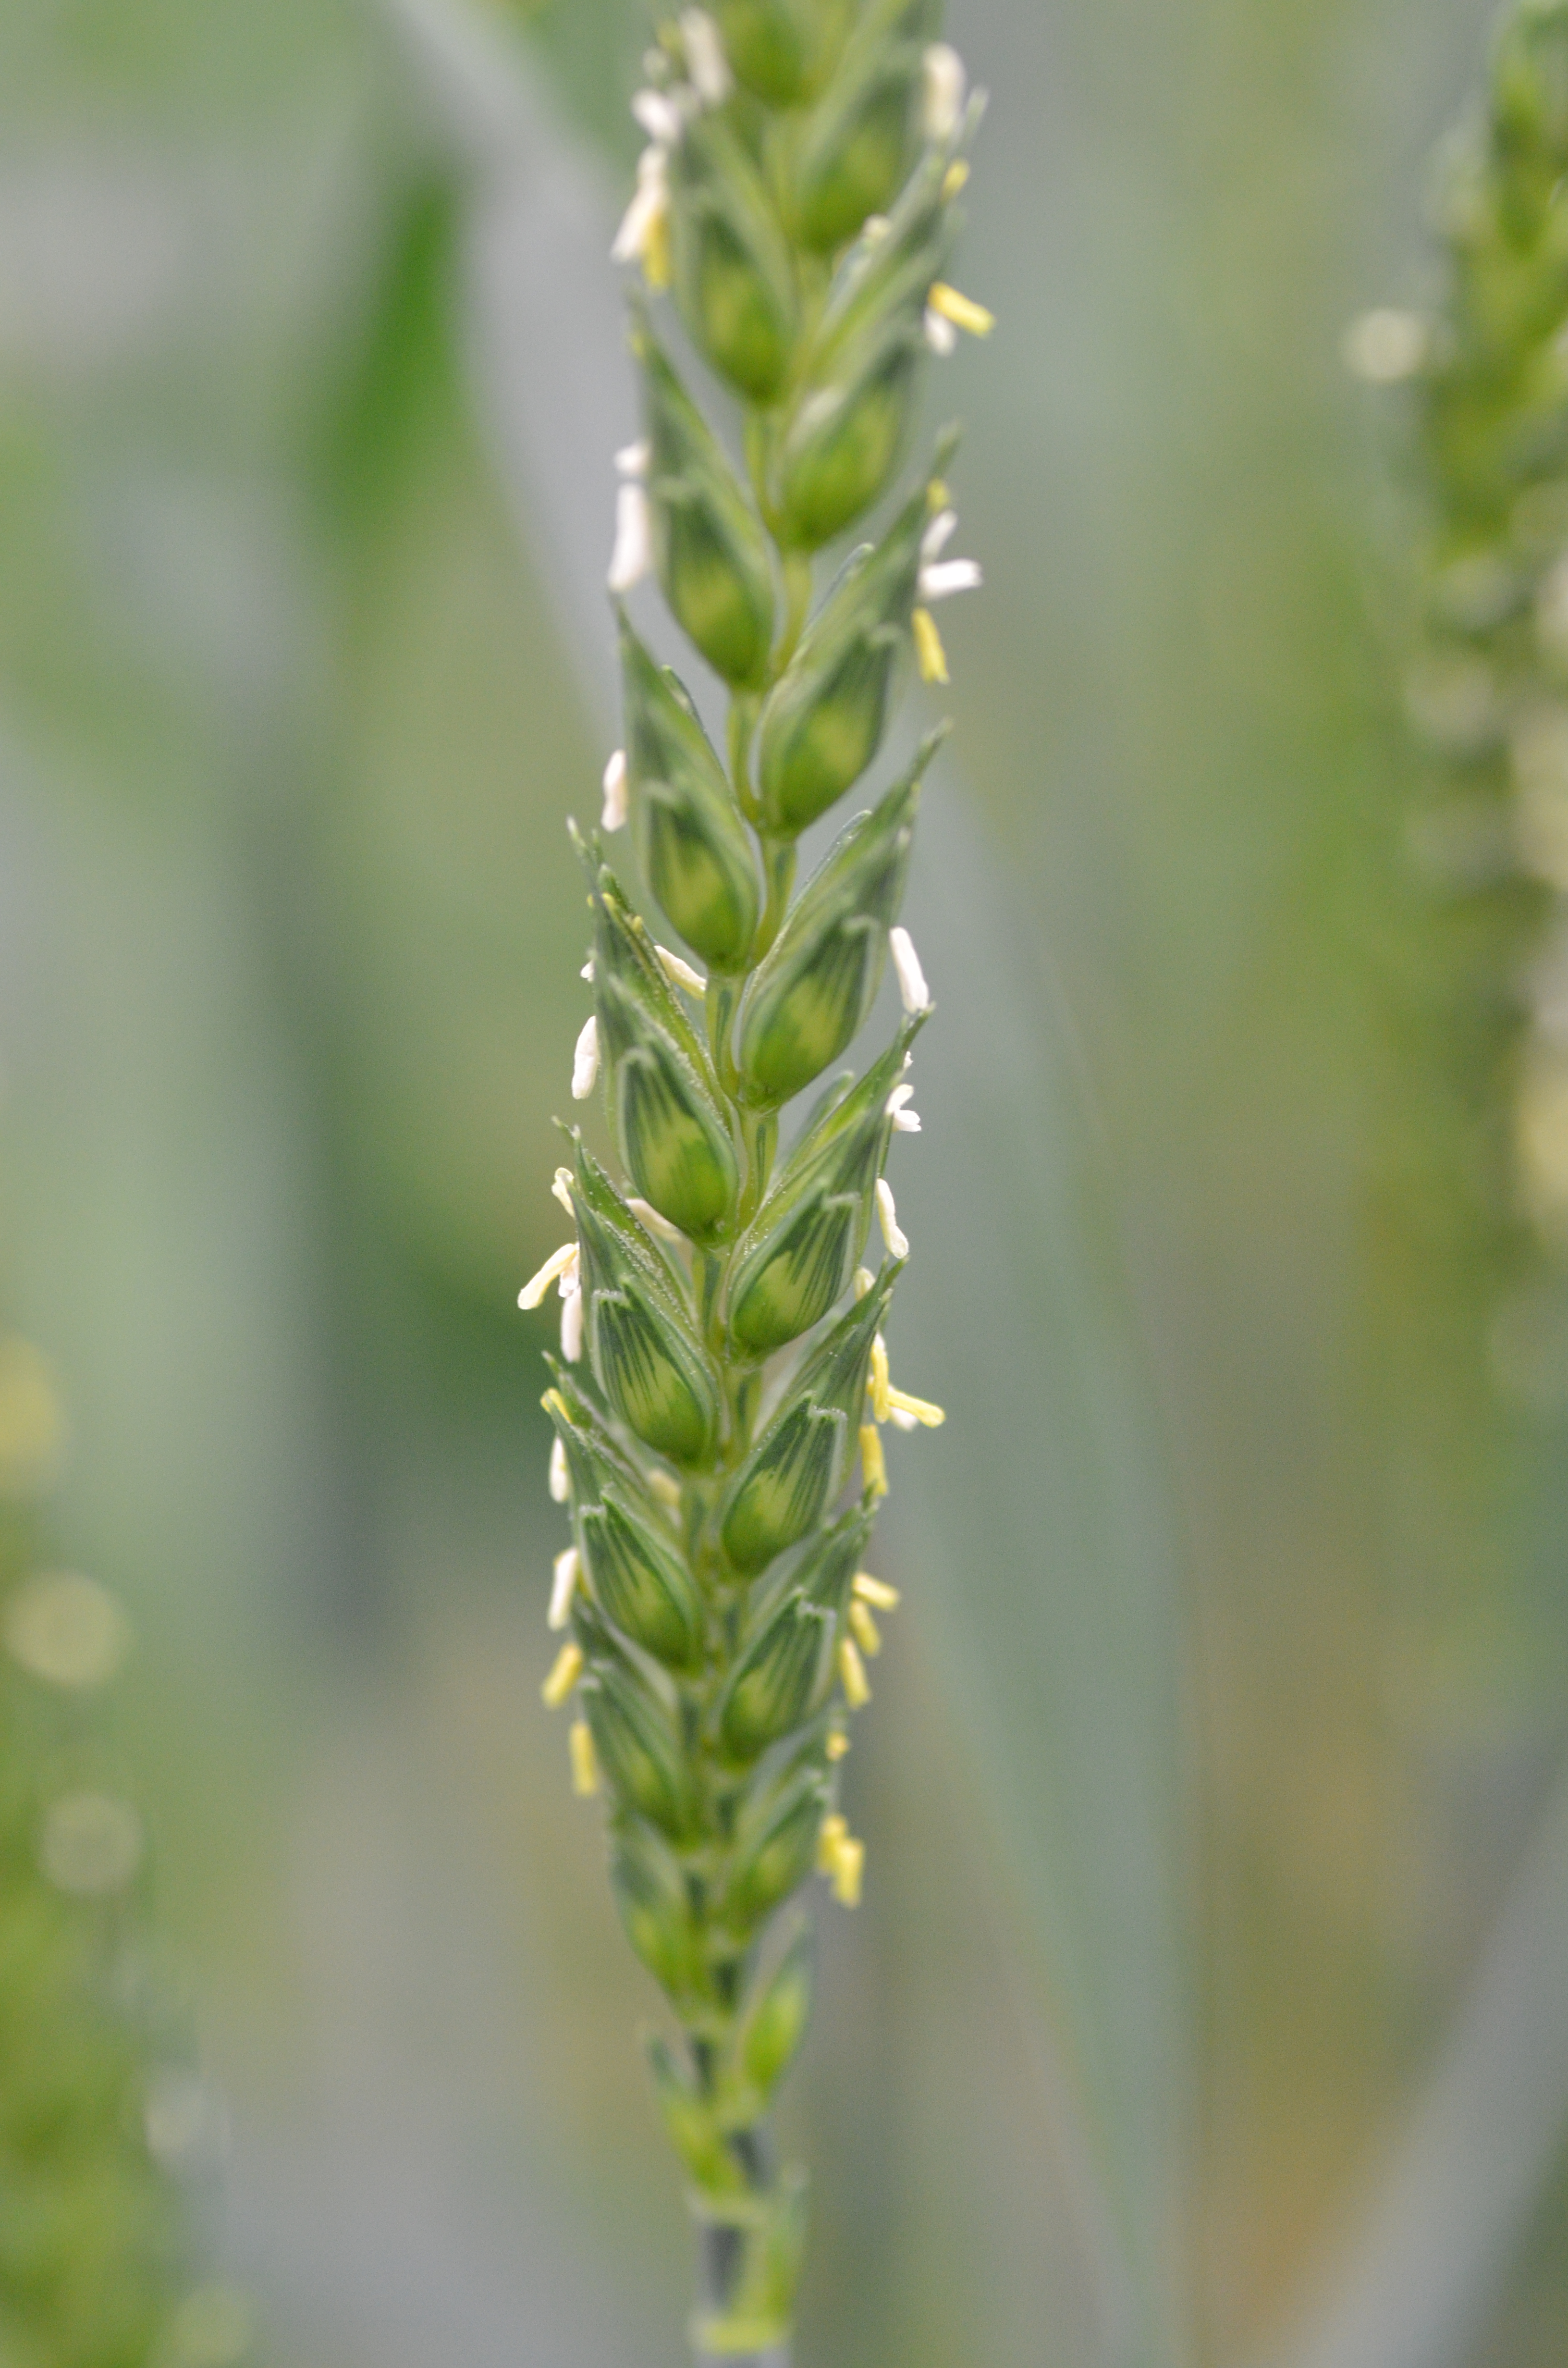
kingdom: Plantae
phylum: Tracheophyta
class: Liliopsida
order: Poales
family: Poaceae
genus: Triticum
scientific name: Triticum aestivum
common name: Common wheat
